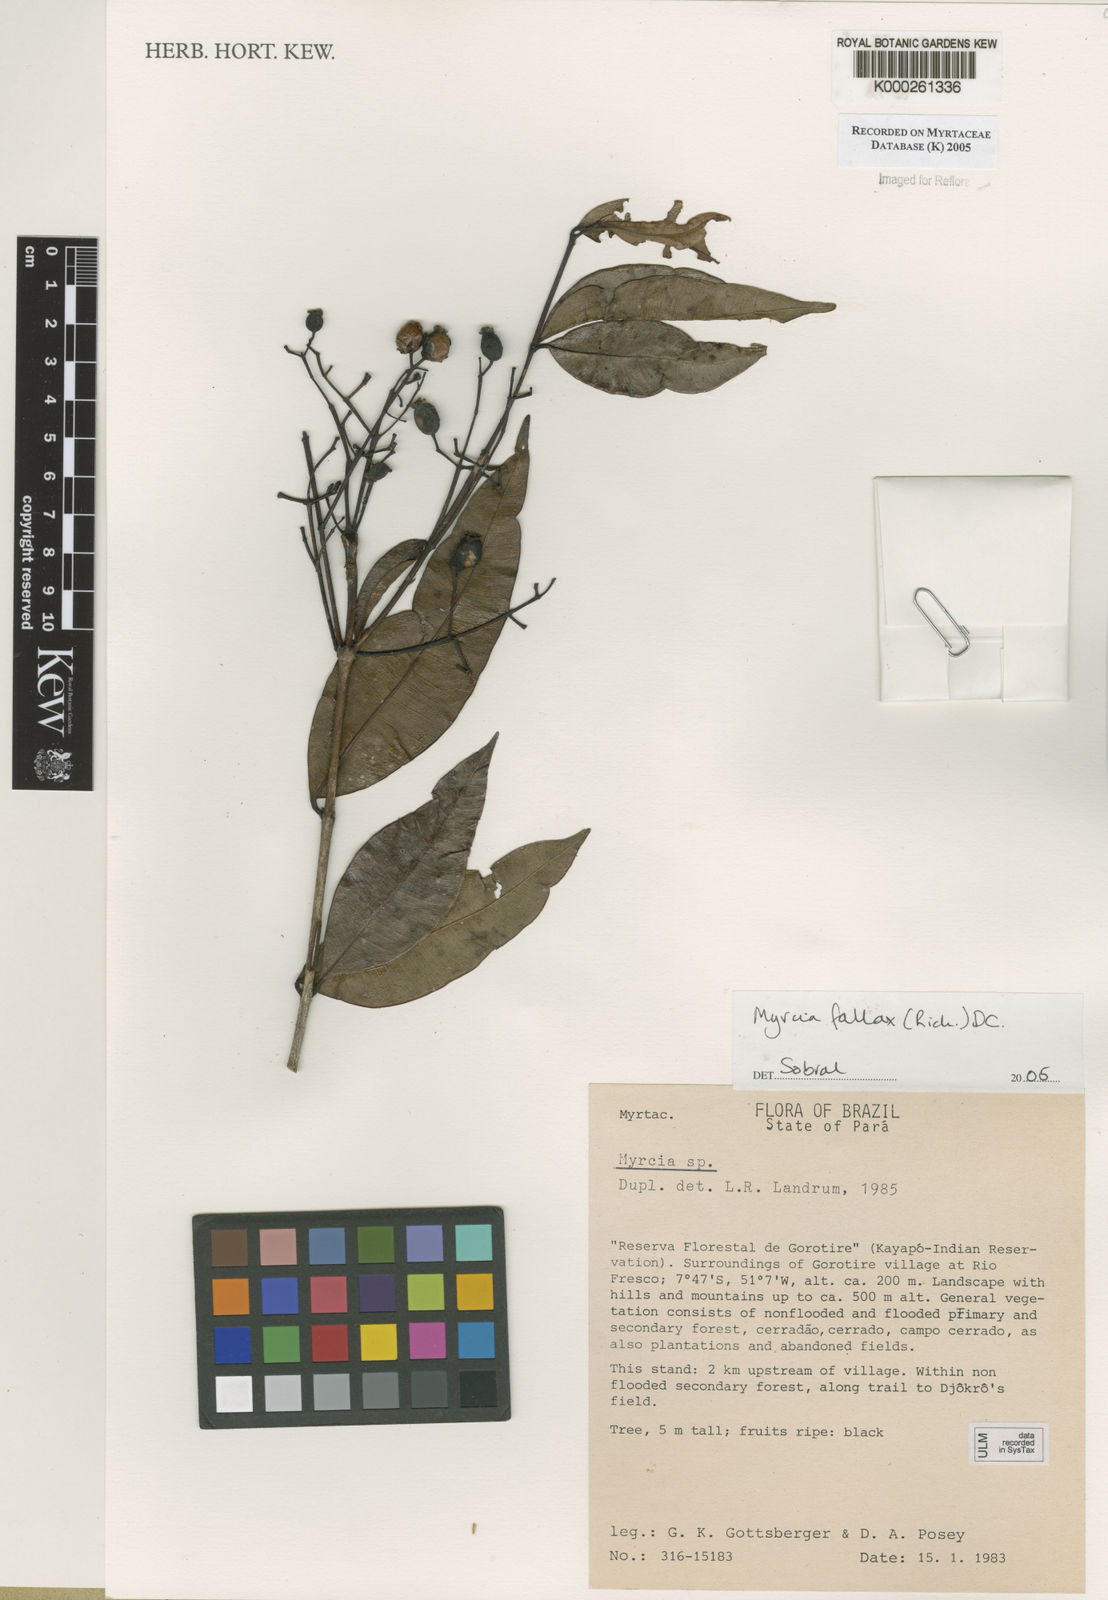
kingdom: Plantae
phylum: Tracheophyta
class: Magnoliopsida
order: Myrtales
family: Myrtaceae
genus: Myrcia
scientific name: Myrcia splendens
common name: Surinam cherry
